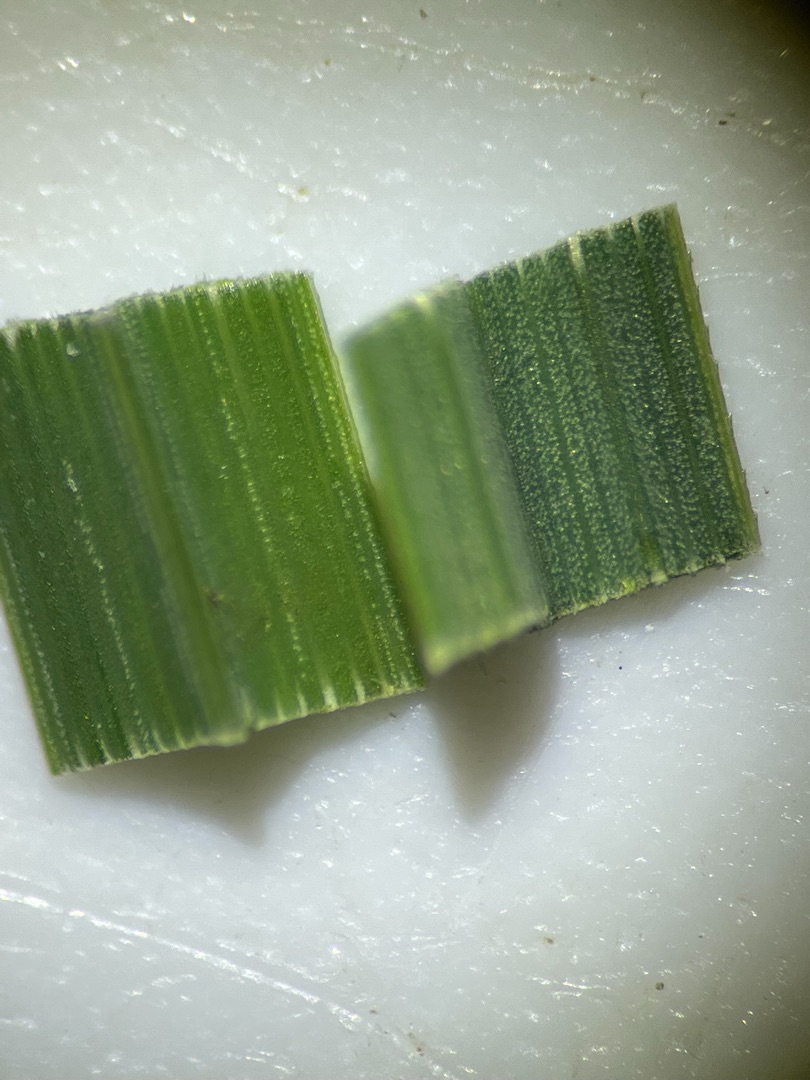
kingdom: Plantae
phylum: Tracheophyta
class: Liliopsida
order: Poales
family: Cyperaceae
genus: Carex
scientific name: Carex
